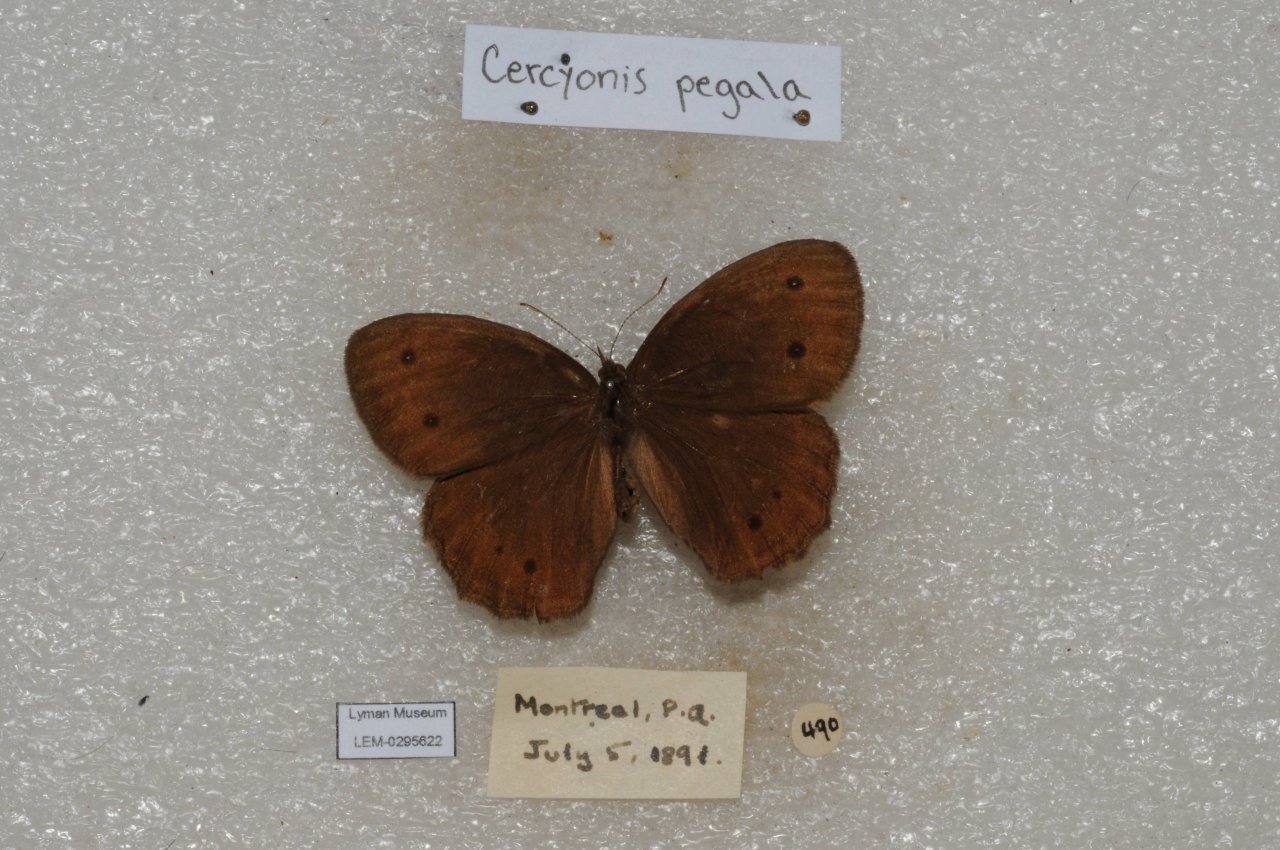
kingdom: Animalia
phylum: Arthropoda
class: Insecta
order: Lepidoptera
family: Nymphalidae
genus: Cercyonis
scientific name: Cercyonis pegala
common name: Common Wood-Nymph
